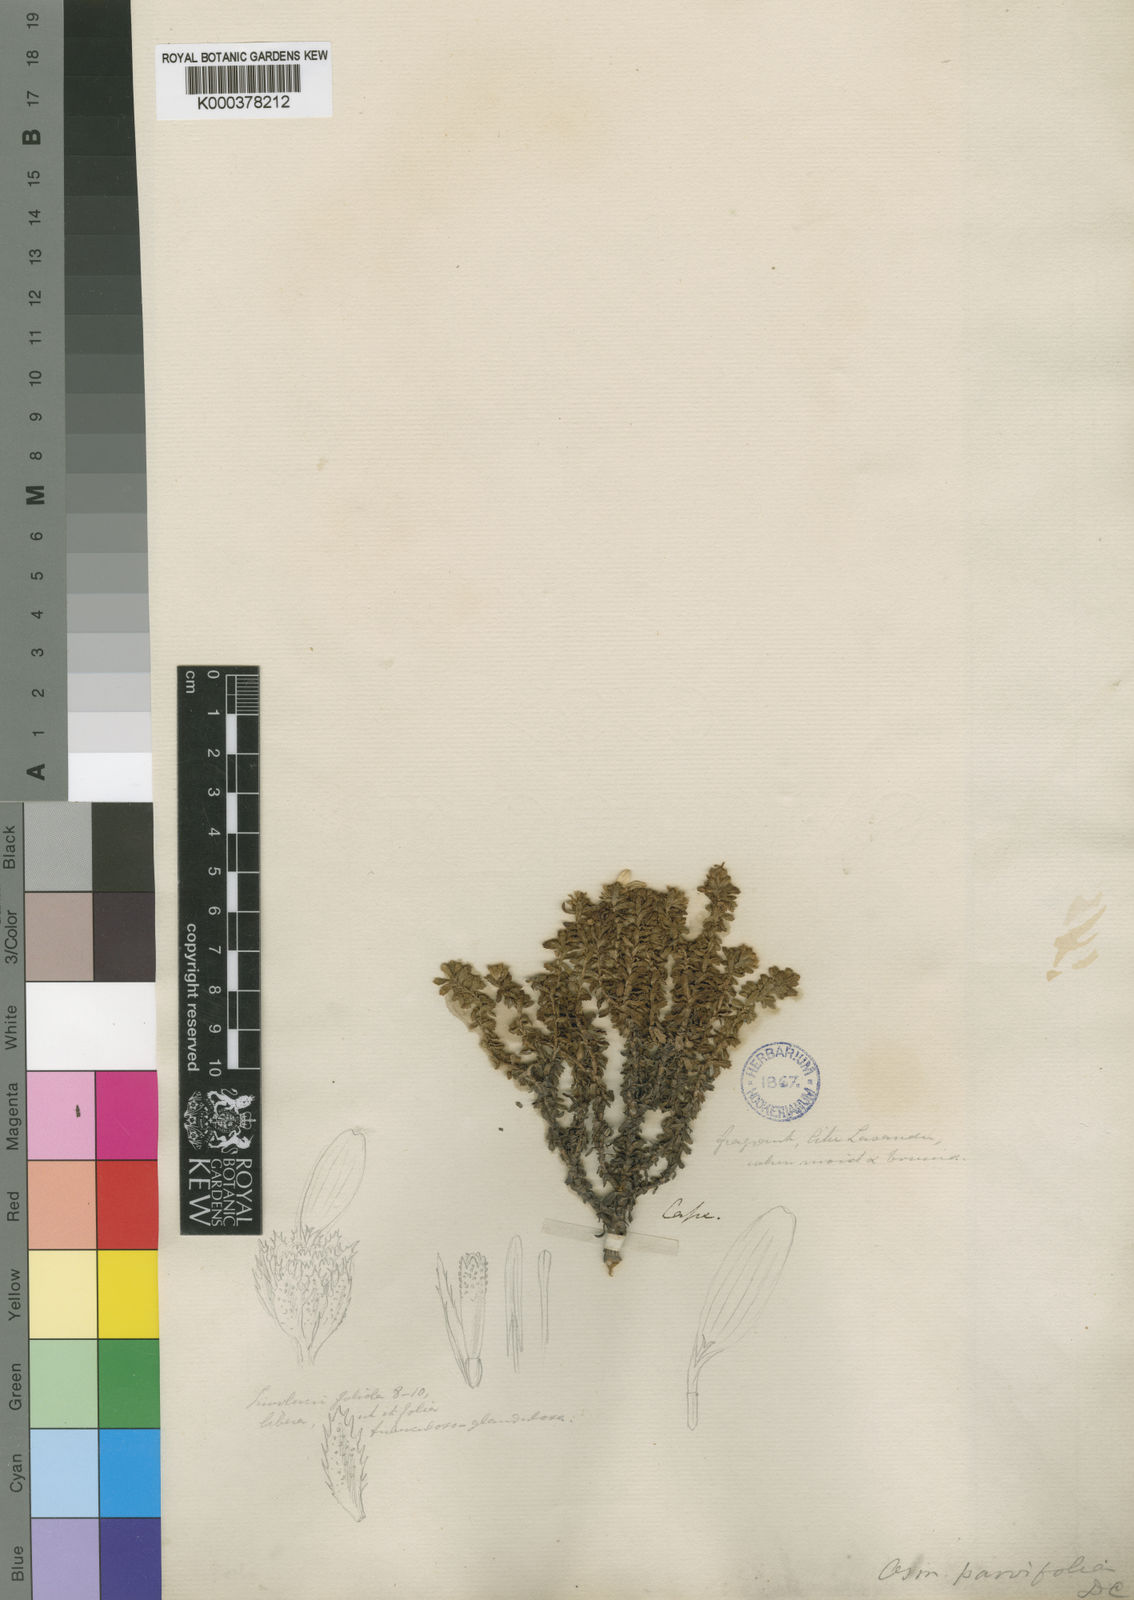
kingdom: Plantae
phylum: Tracheophyta
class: Magnoliopsida
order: Asterales
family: Asteraceae
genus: Osmitopsis
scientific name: Osmitopsis
